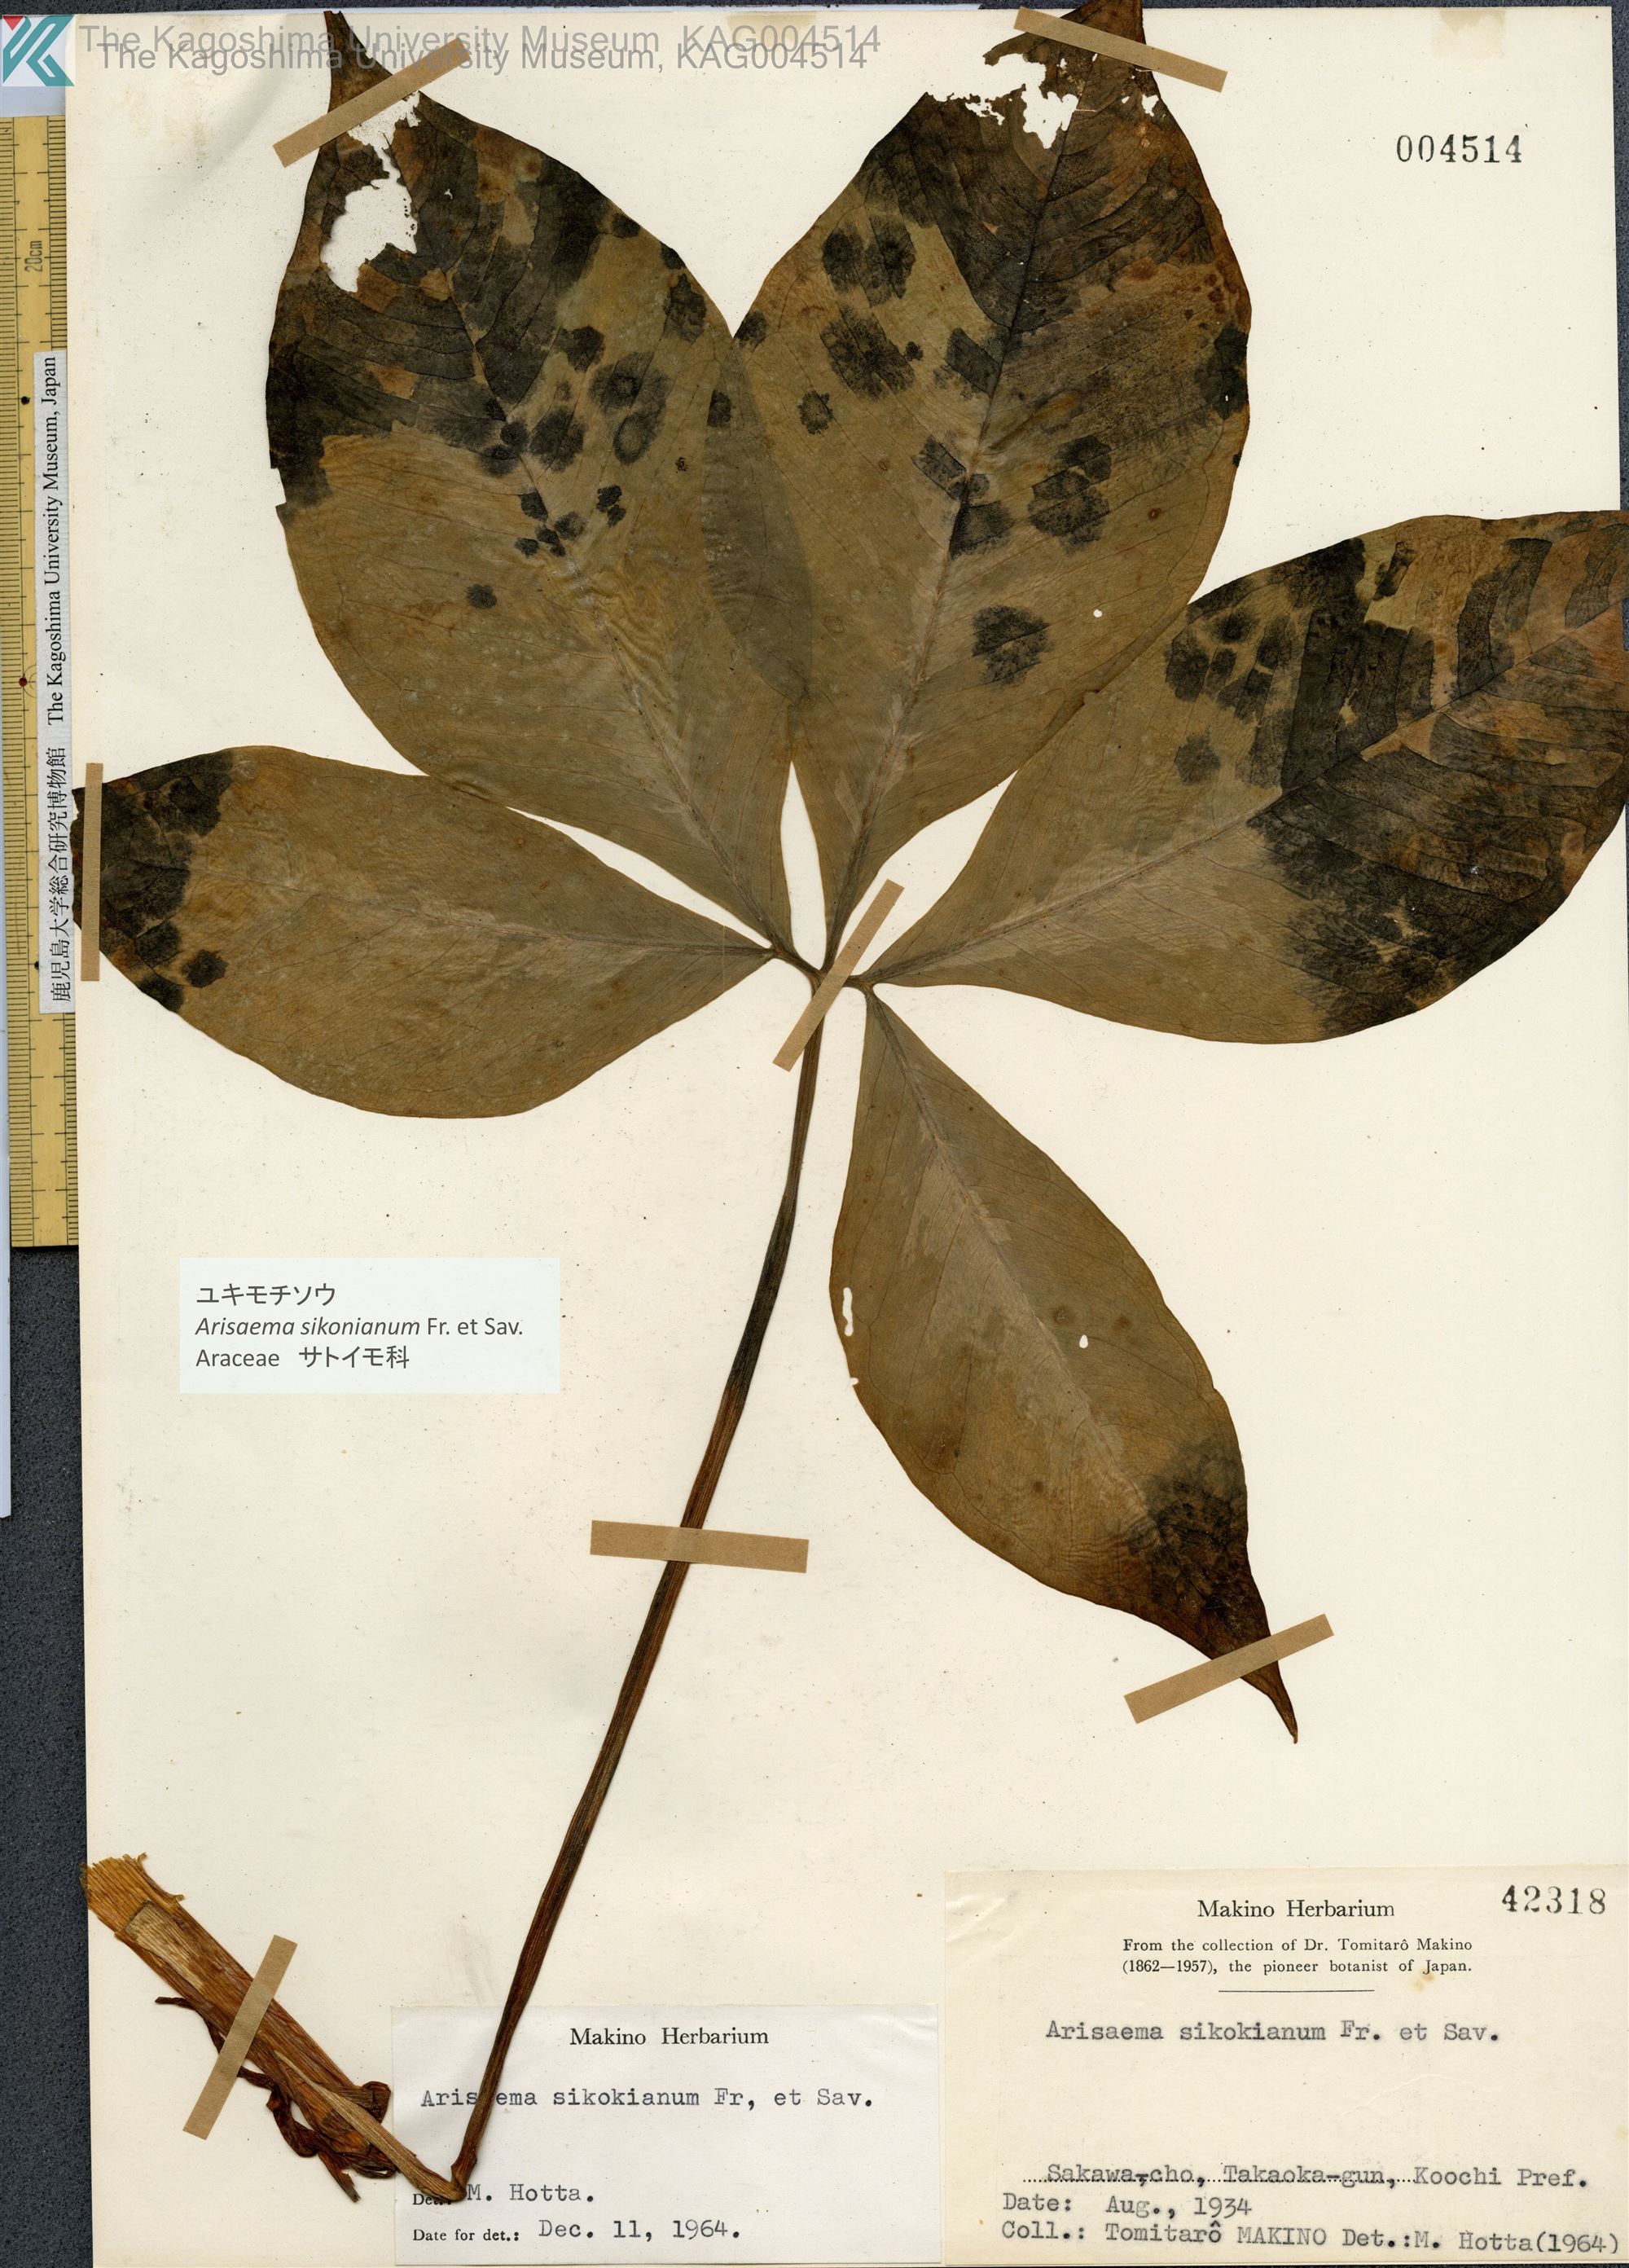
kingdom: Plantae
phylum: Tracheophyta
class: Liliopsida
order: Alismatales
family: Araceae
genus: Arisaema
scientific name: Arisaema sikokianum
